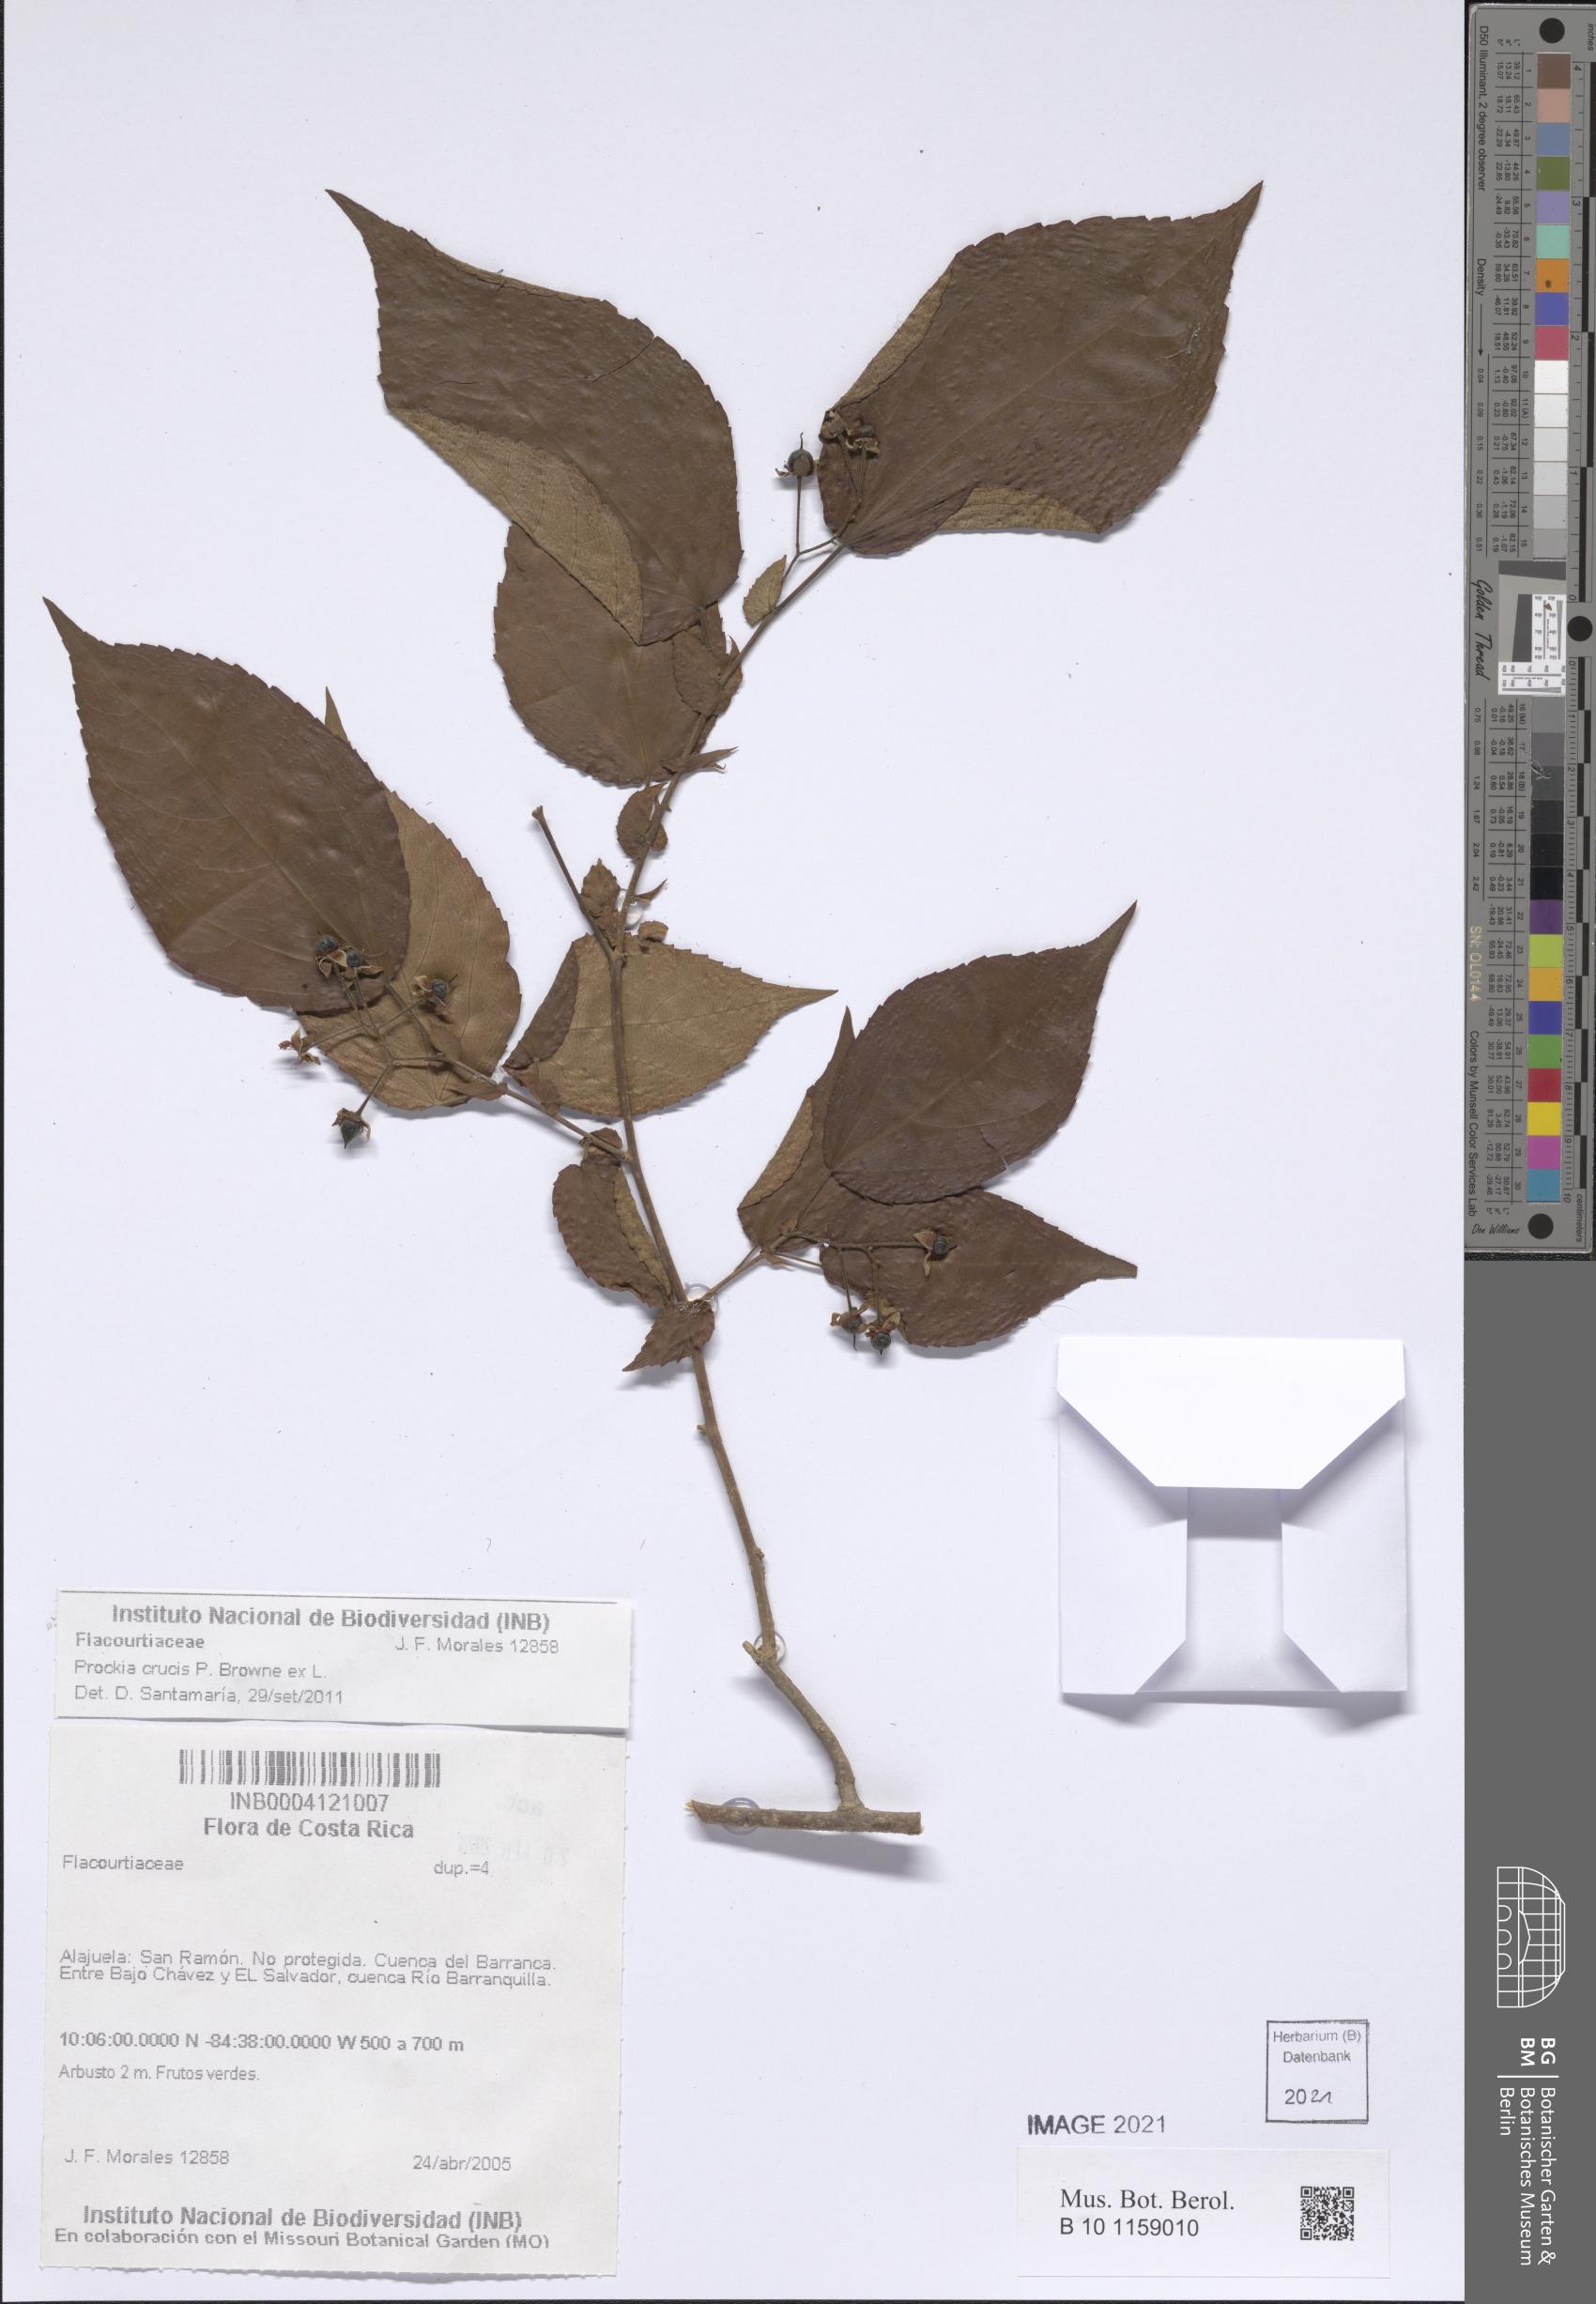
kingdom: Plantae
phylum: Tracheophyta
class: Magnoliopsida
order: Malpighiales
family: Salicaceae
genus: Prockia
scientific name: Prockia crucis
